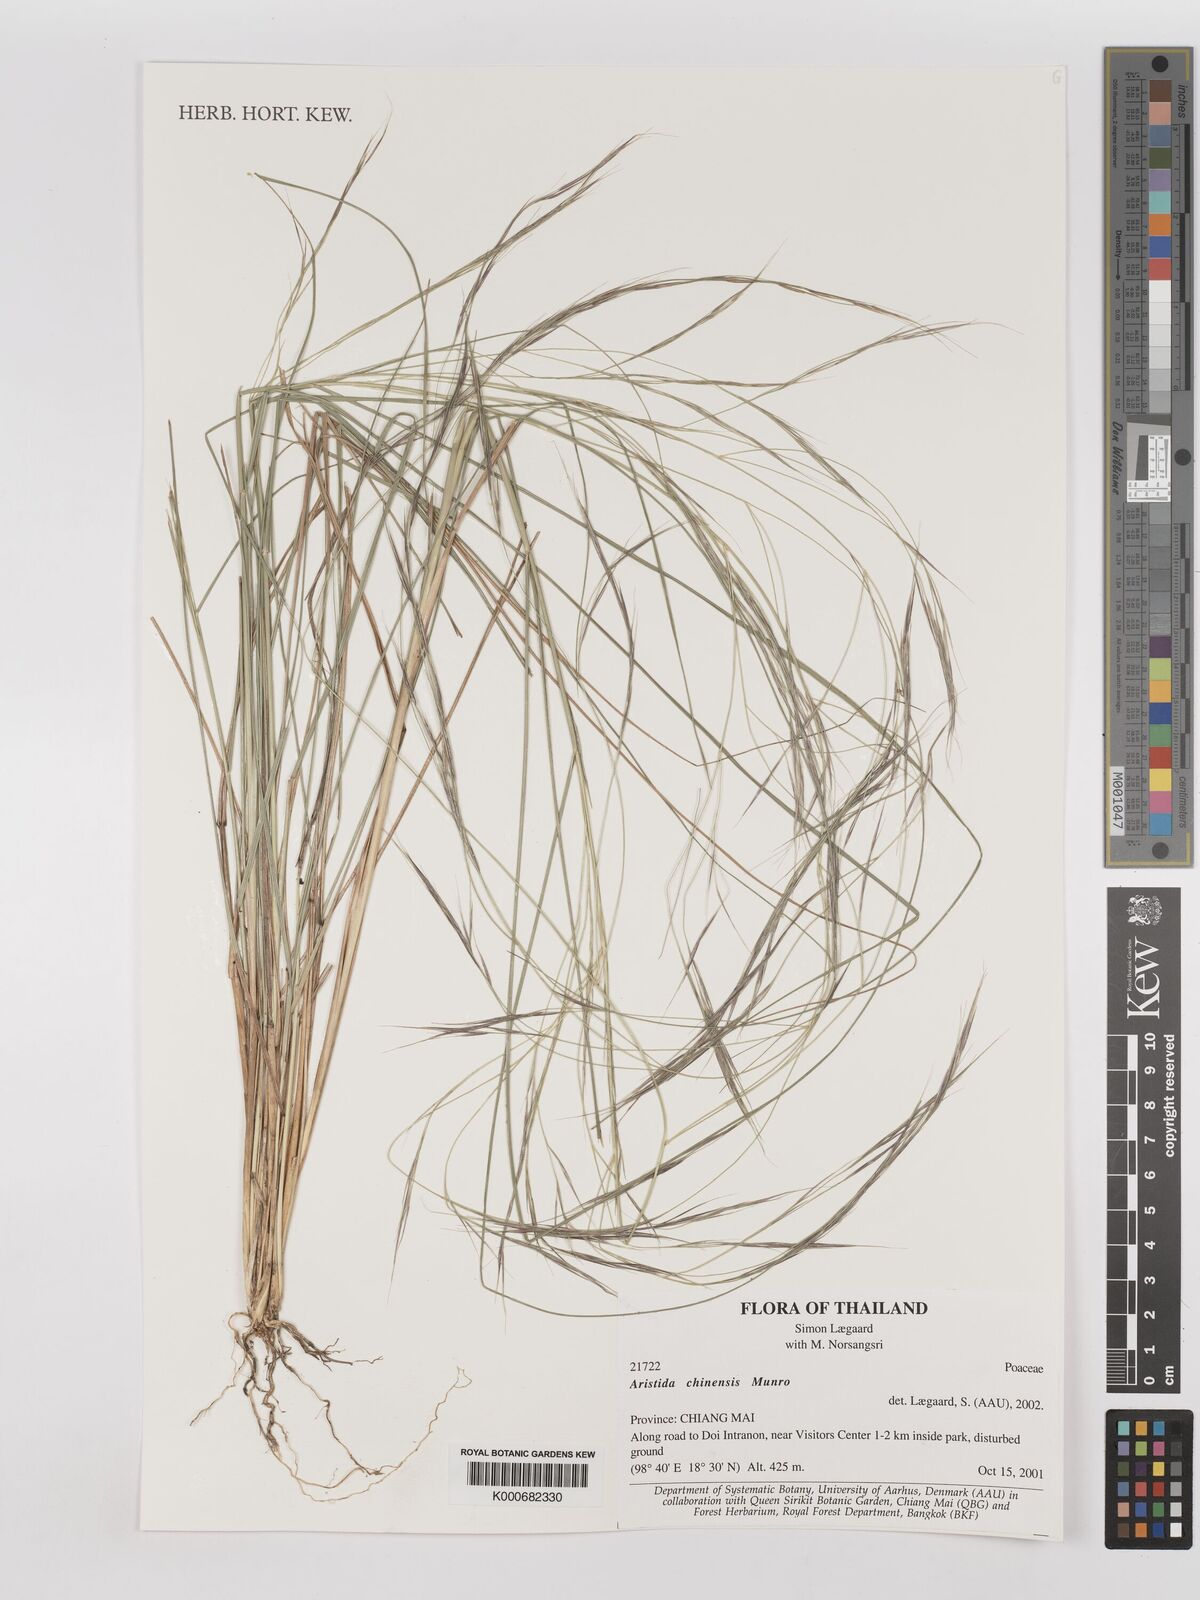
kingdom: Plantae
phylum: Tracheophyta
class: Liliopsida
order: Poales
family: Poaceae
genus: Aristida
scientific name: Aristida chinensis
